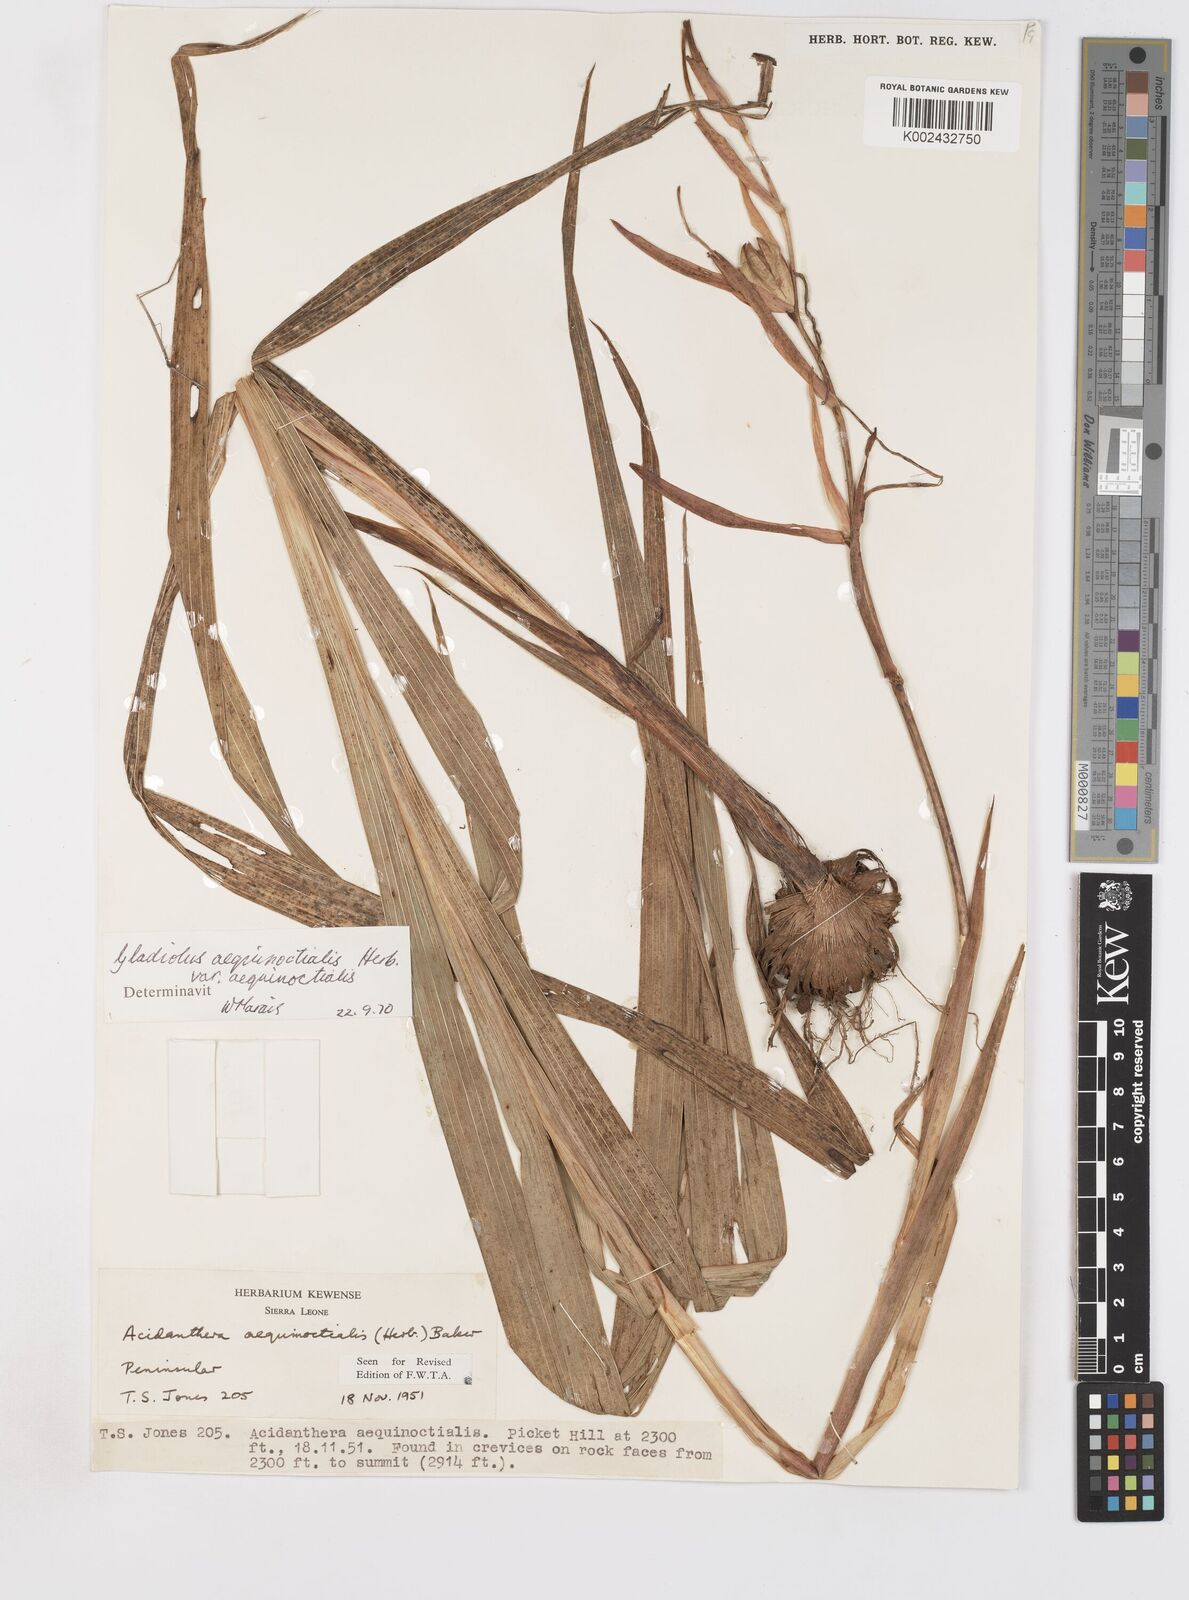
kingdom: Plantae
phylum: Tracheophyta
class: Liliopsida
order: Asparagales
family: Iridaceae
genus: Gladiolus
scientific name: Gladiolus aequinoctialis
